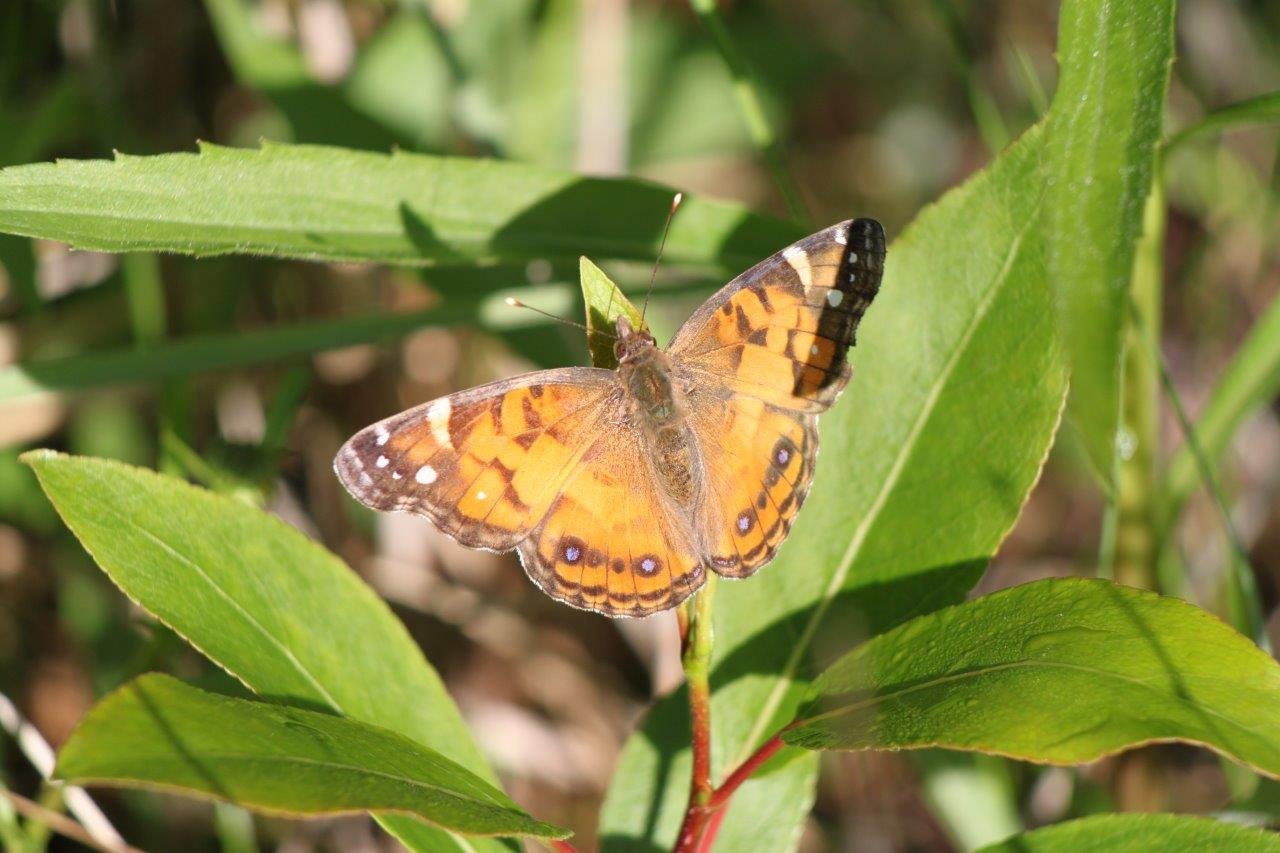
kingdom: Animalia
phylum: Arthropoda
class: Insecta
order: Lepidoptera
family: Nymphalidae
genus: Vanessa
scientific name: Vanessa virginiensis
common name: American Lady
